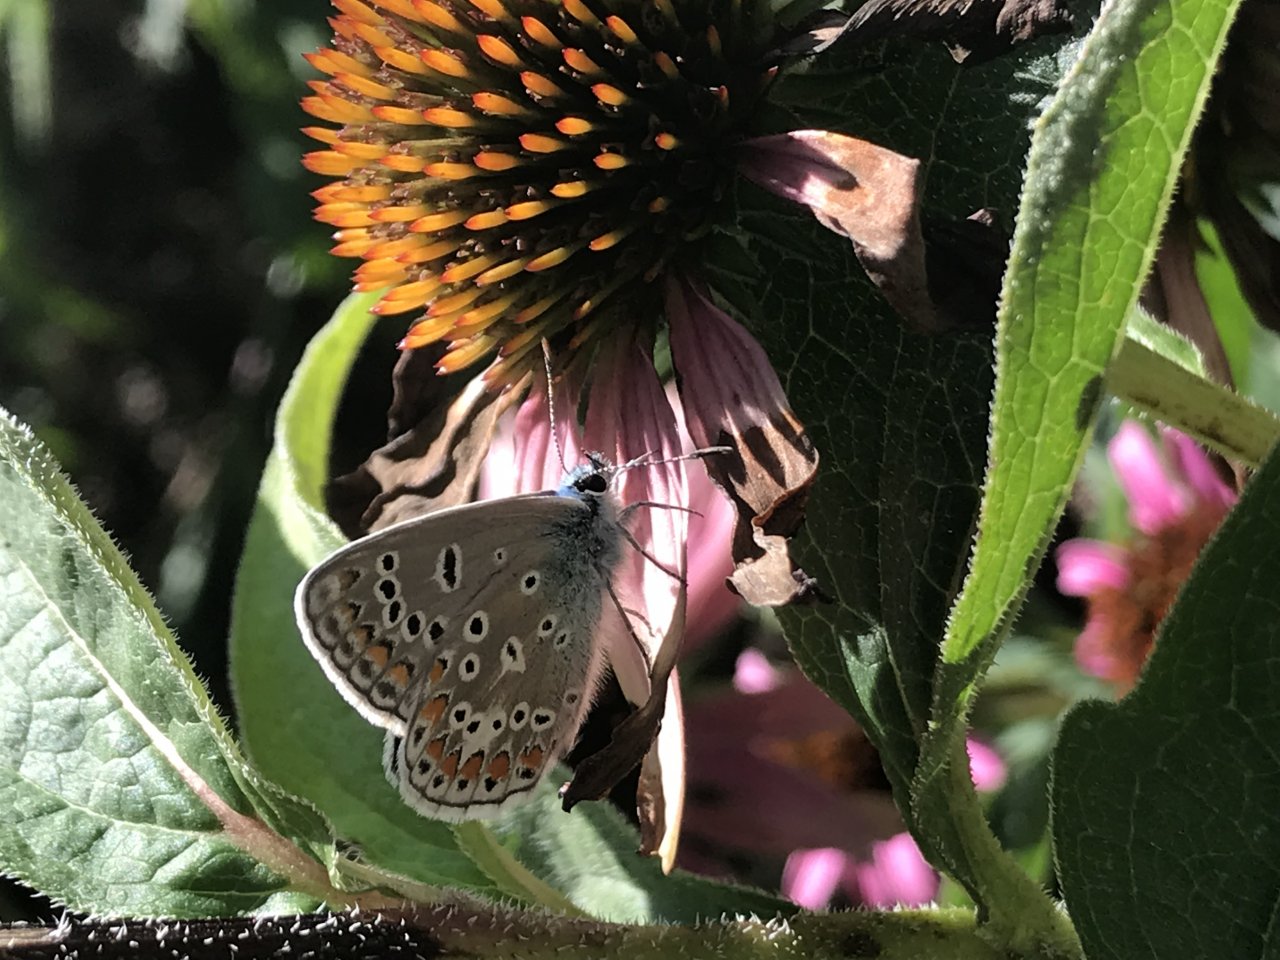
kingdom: Animalia
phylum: Arthropoda
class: Insecta
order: Lepidoptera
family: Lycaenidae
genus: Polyommatus
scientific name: Polyommatus icarus
